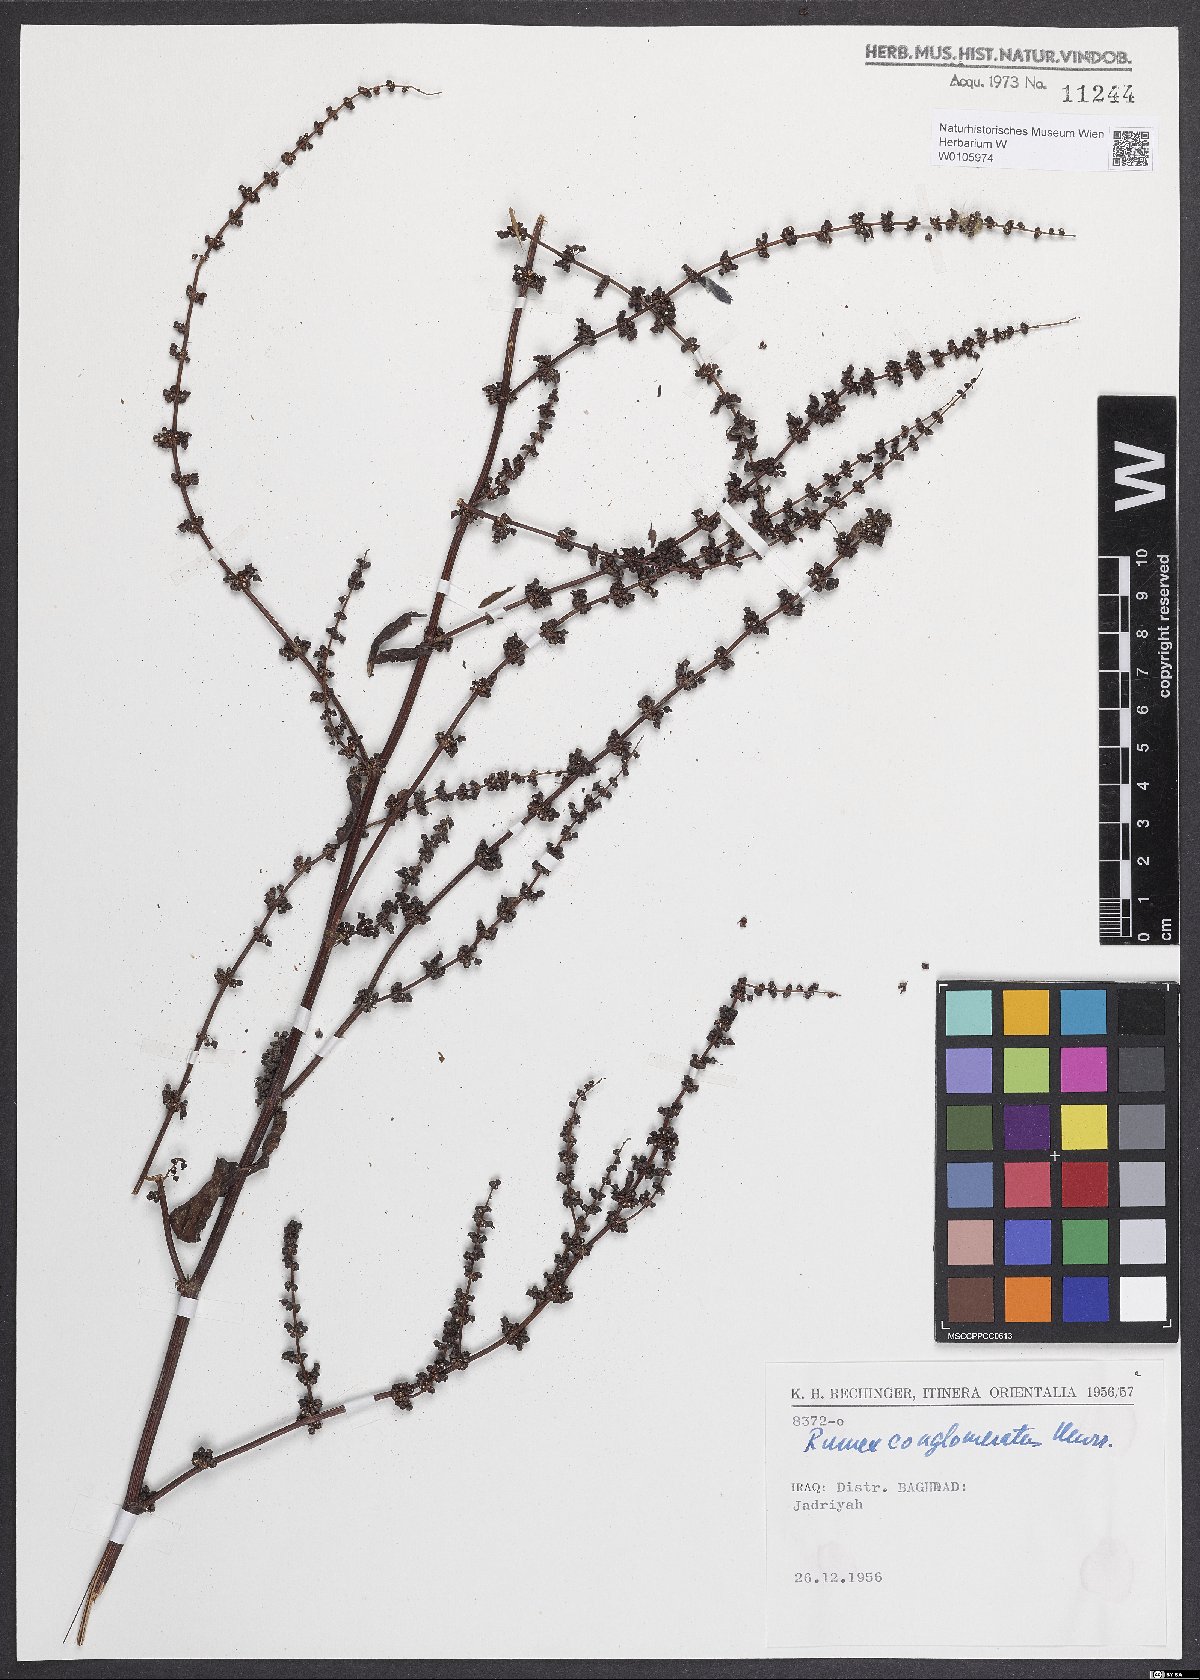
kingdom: Plantae
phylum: Tracheophyta
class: Magnoliopsida
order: Caryophyllales
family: Polygonaceae
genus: Rumex
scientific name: Rumex conglomeratus
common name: Clustered dock
